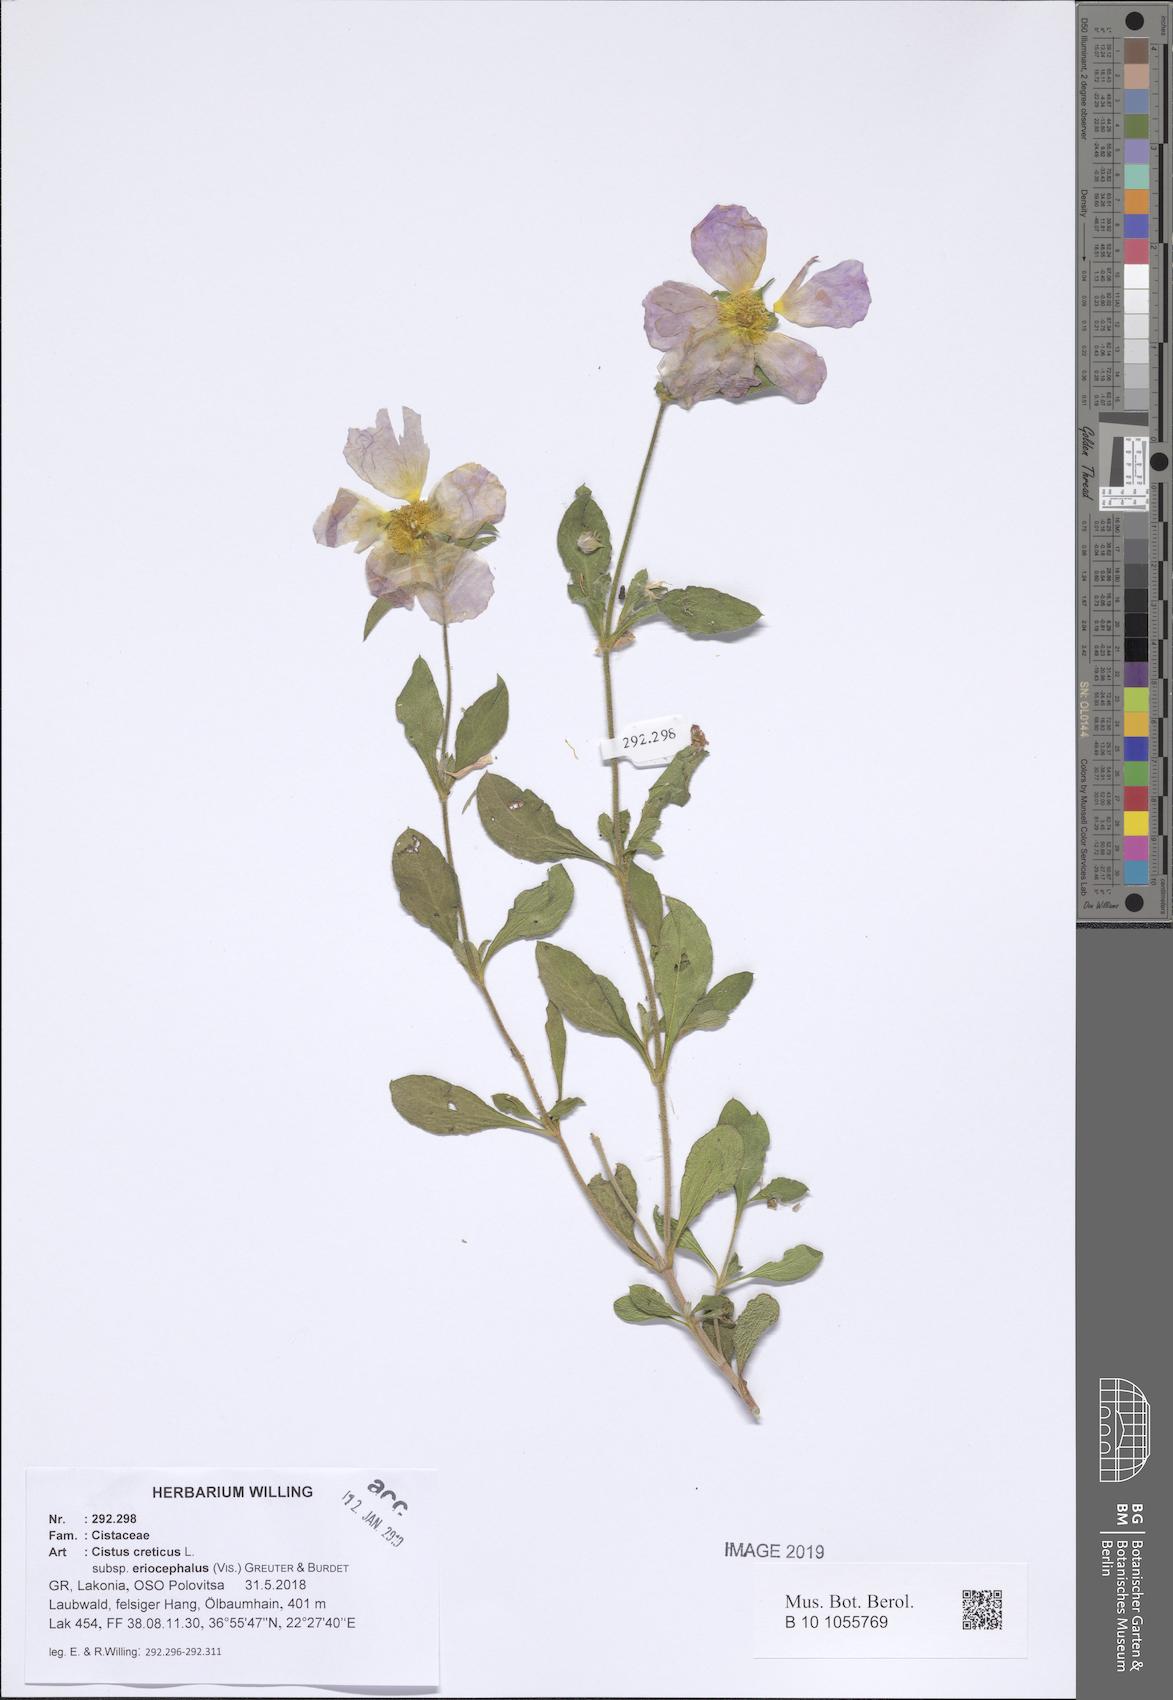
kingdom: Plantae
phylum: Tracheophyta
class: Magnoliopsida
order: Malvales
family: Cistaceae
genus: Cistus
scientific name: Cistus tauricus
